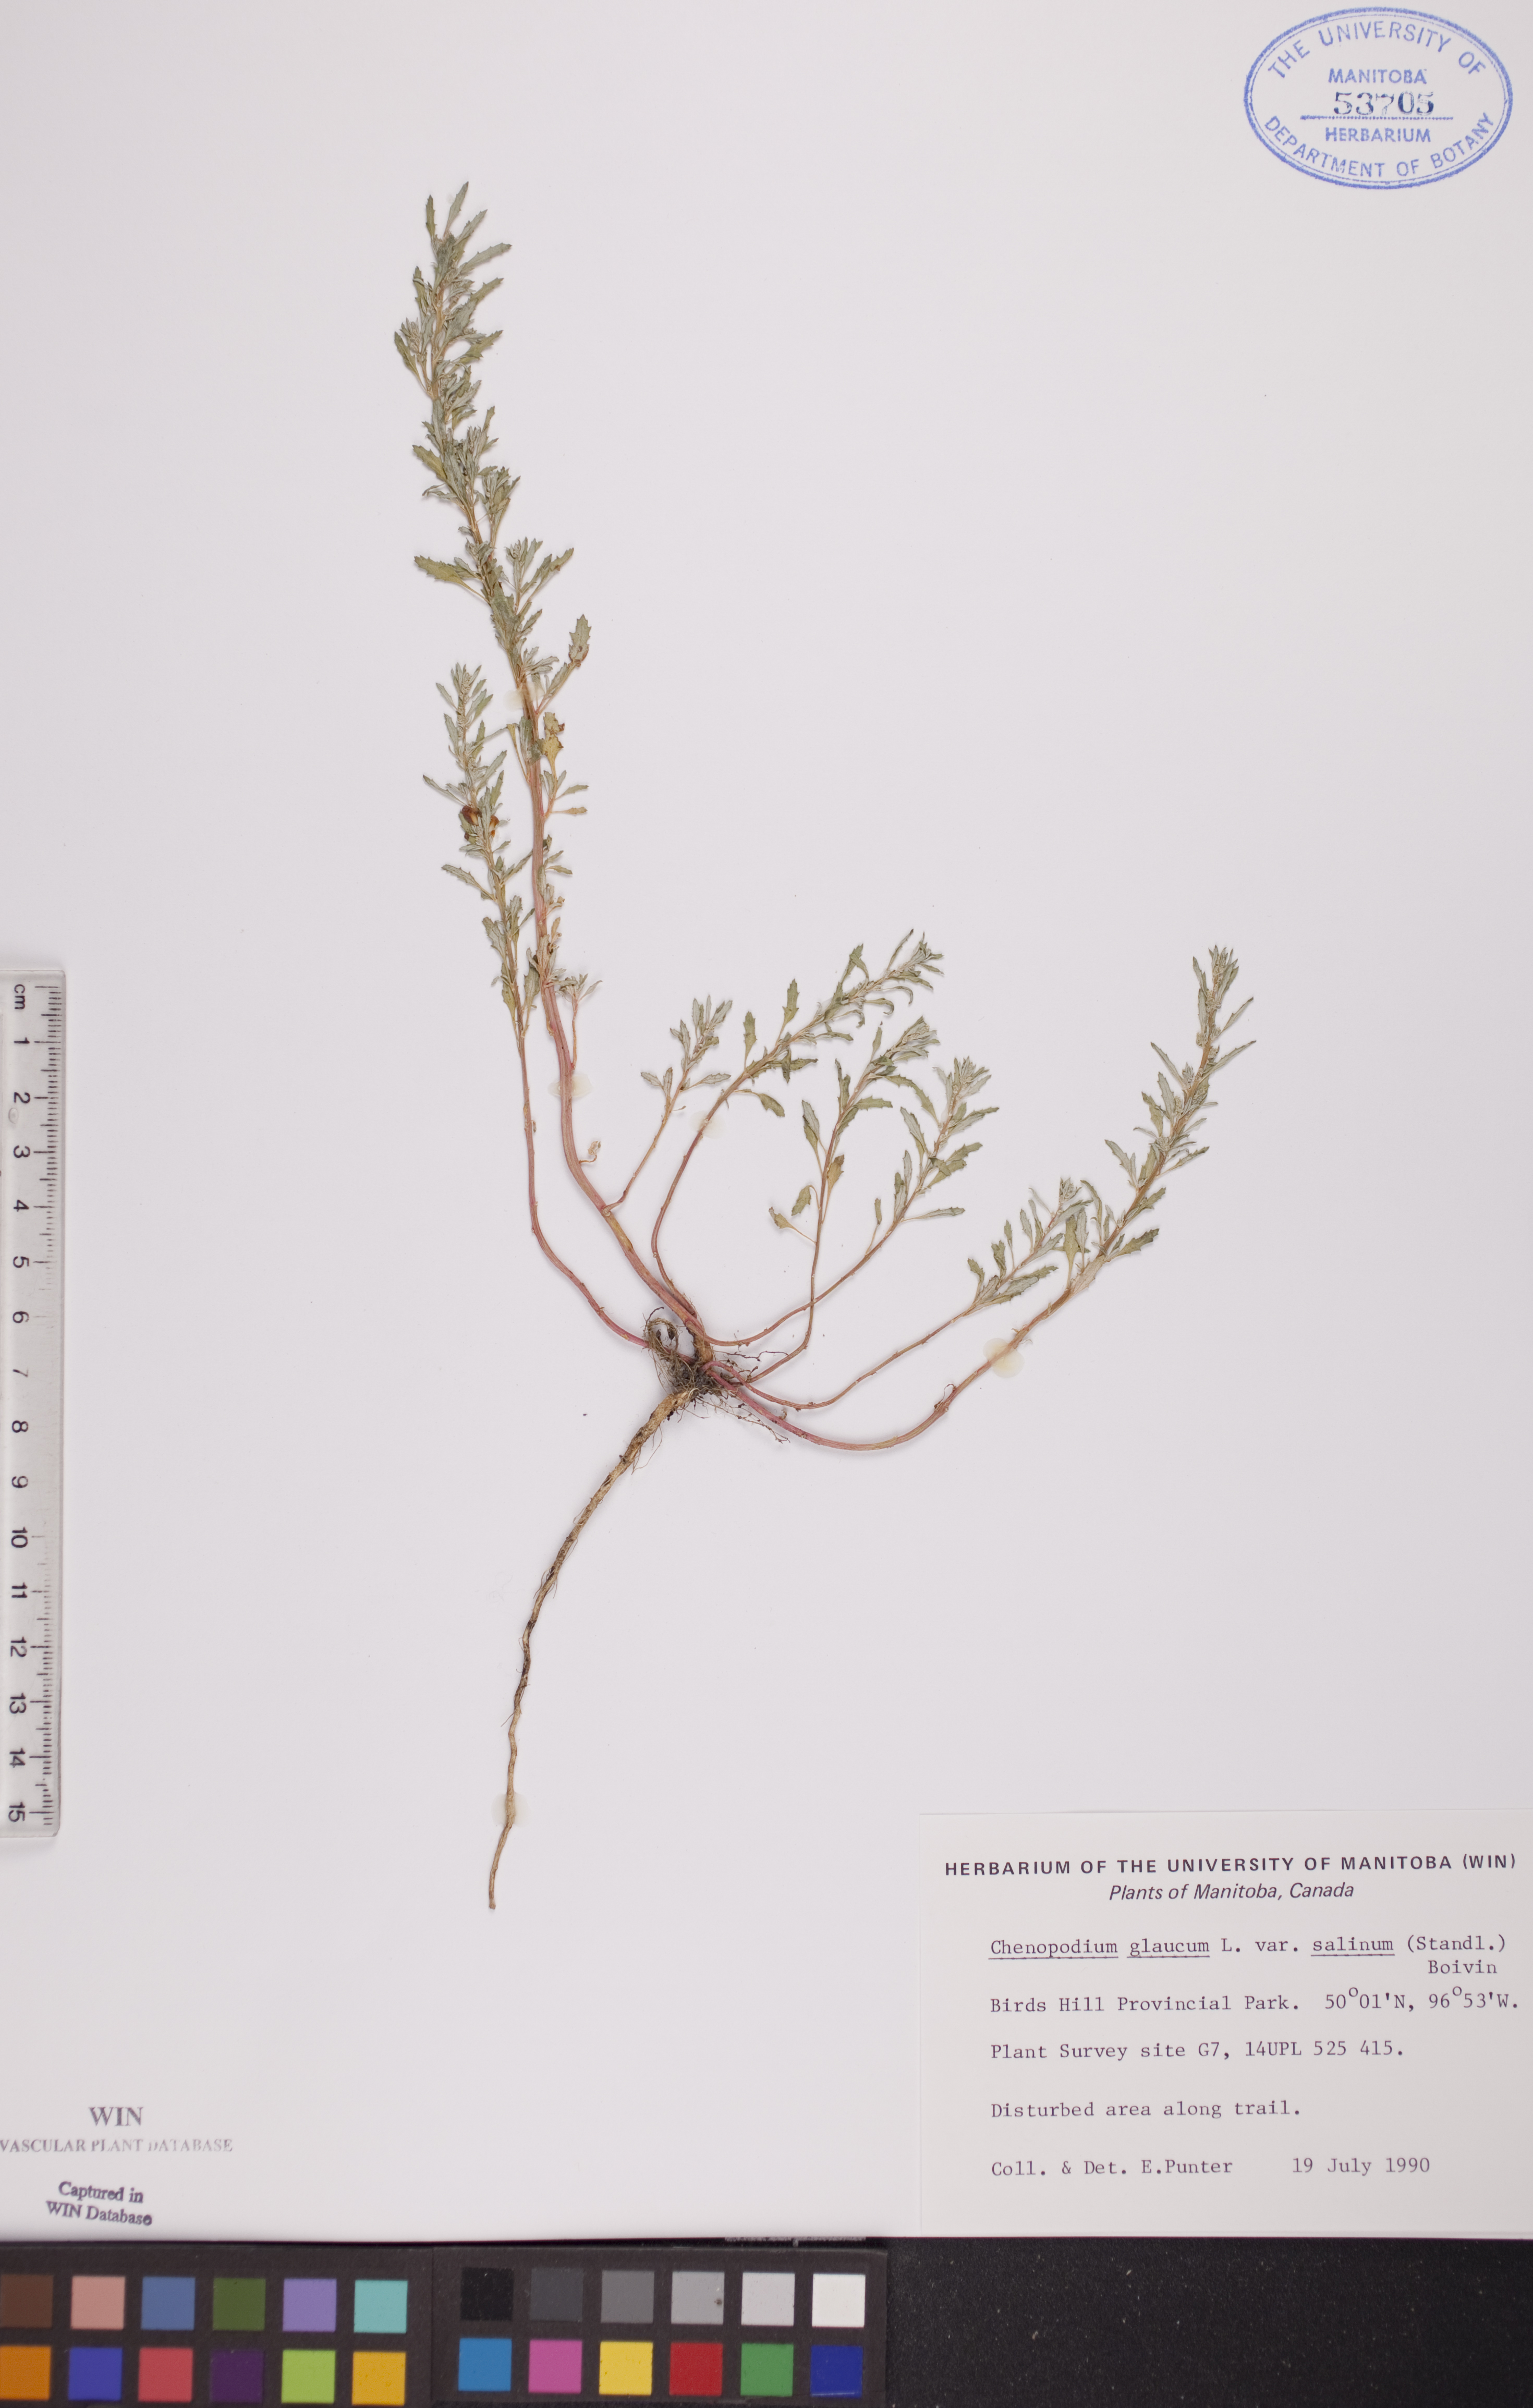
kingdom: Plantae
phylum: Tracheophyta
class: Magnoliopsida
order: Caryophyllales
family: Amaranthaceae
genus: Oxybasis
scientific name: Oxybasis salina
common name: Rocky mountain goosefoot
